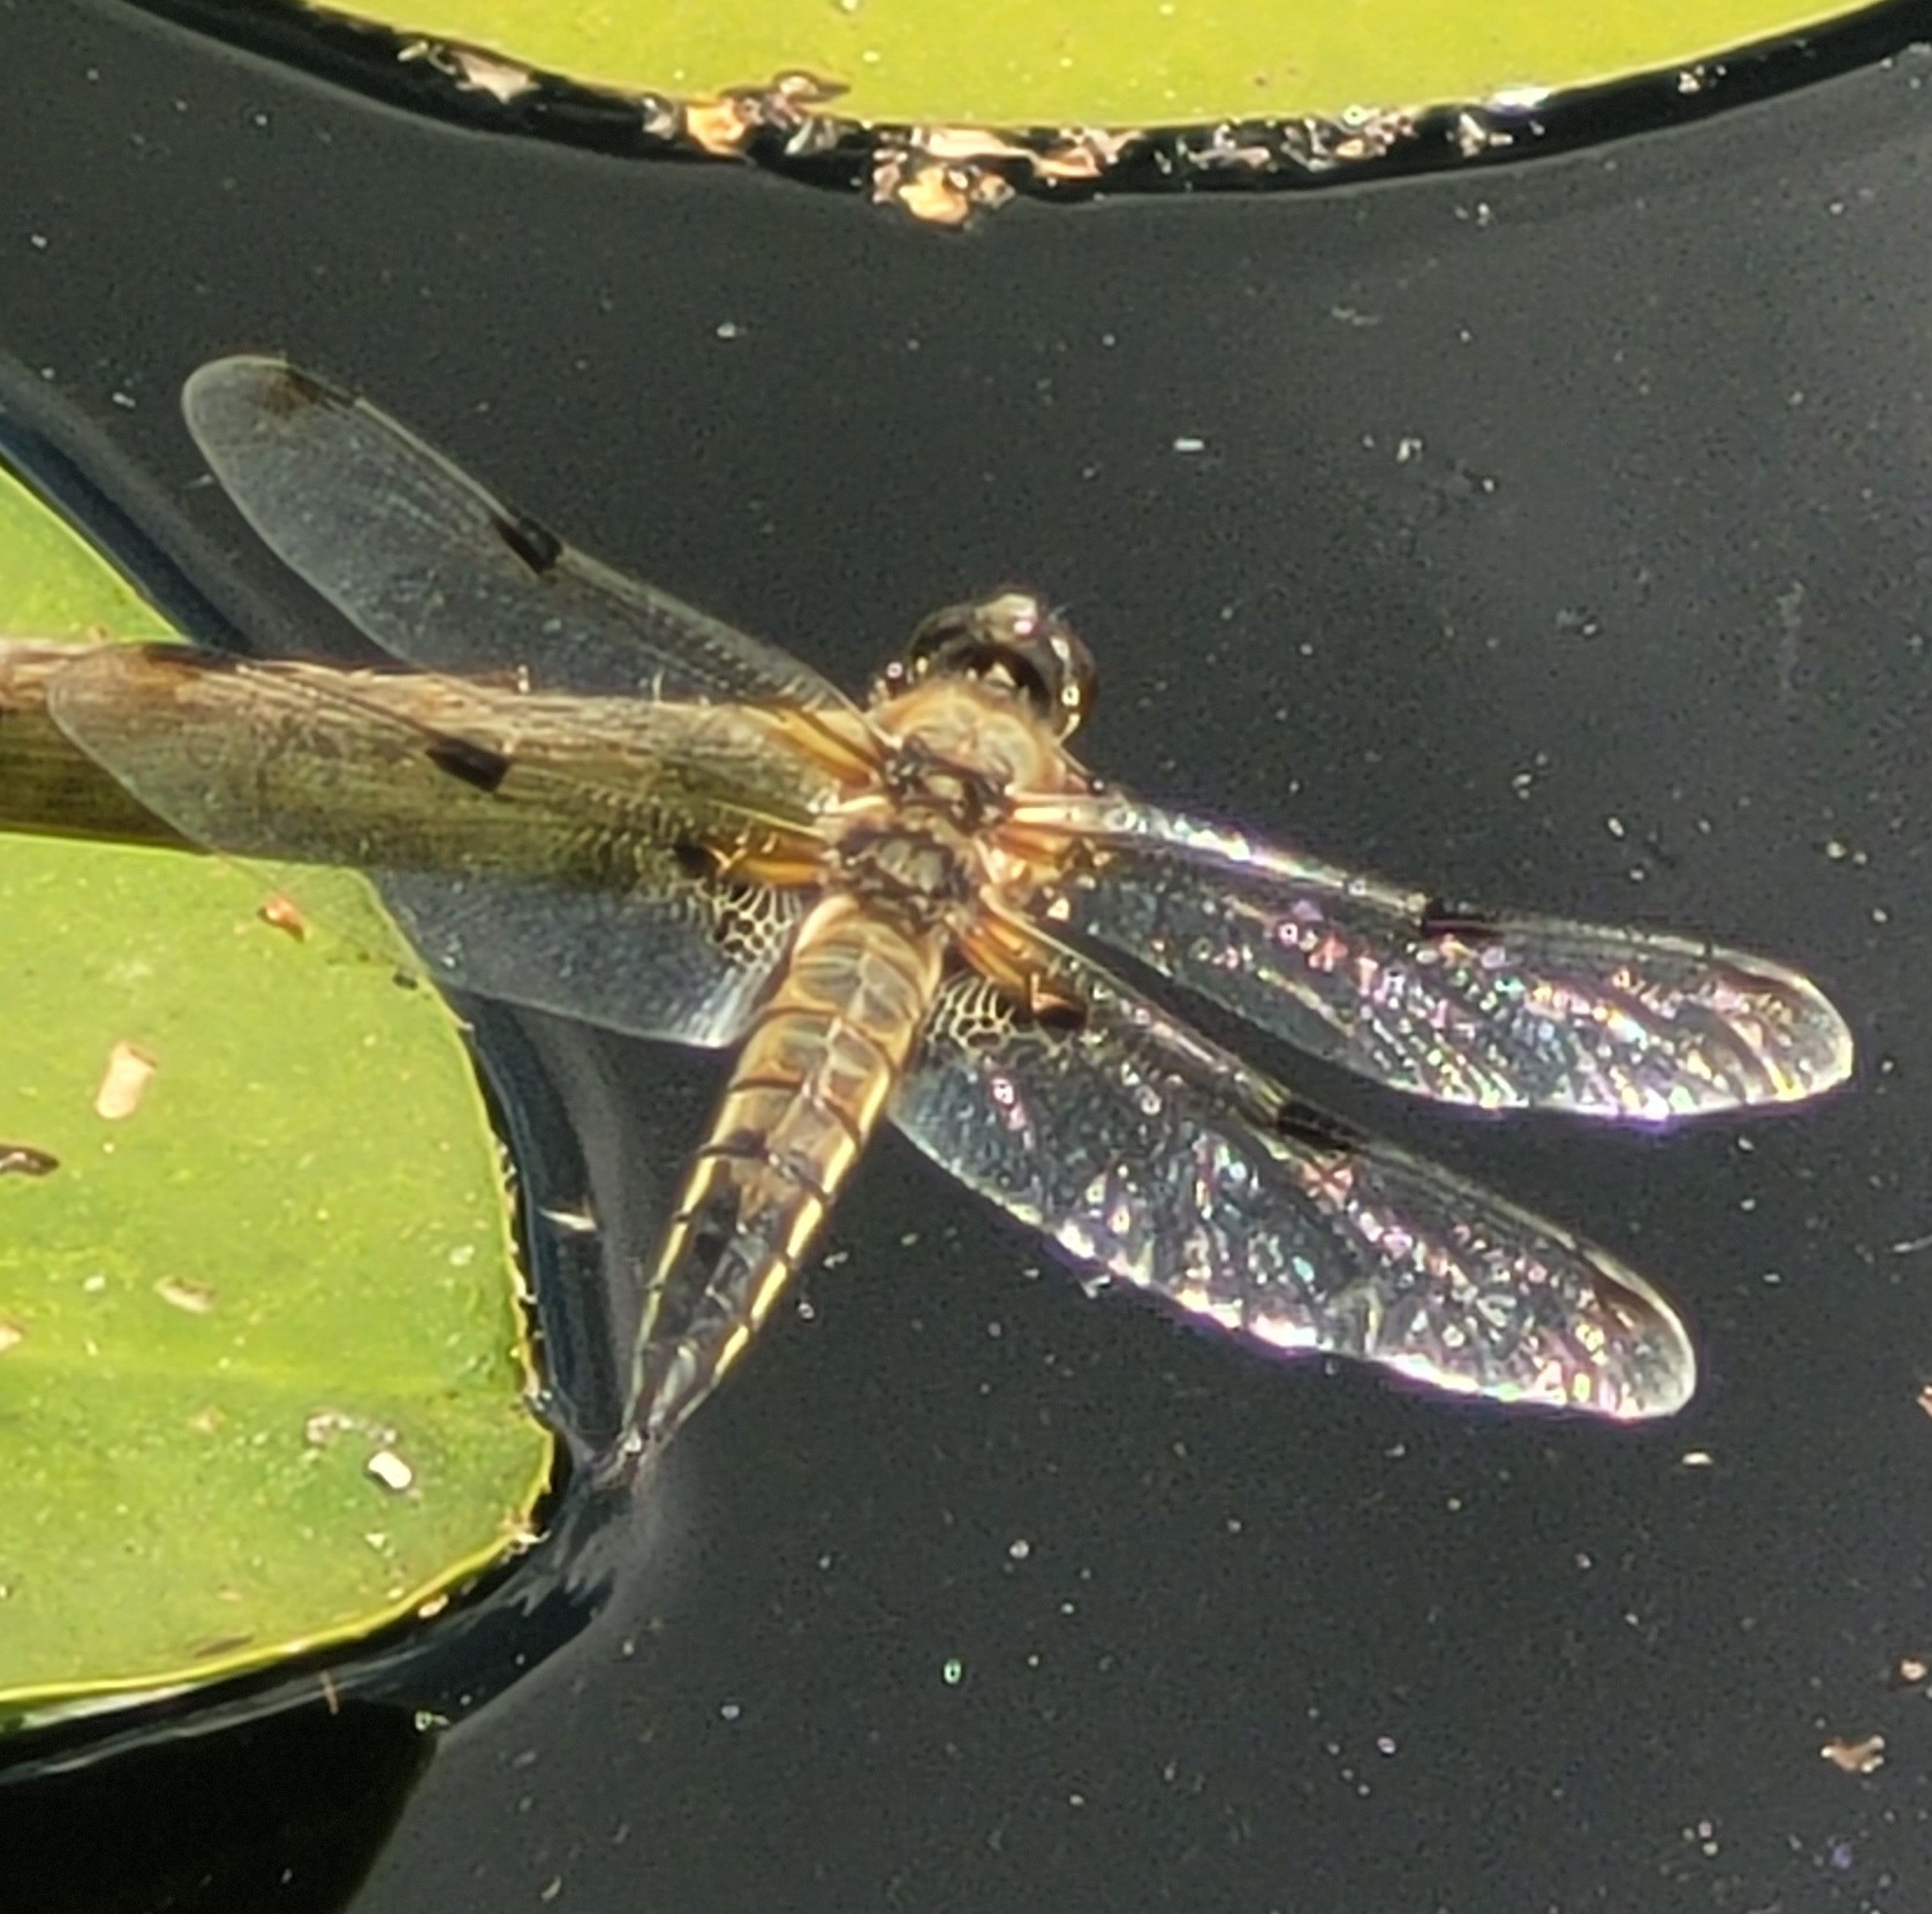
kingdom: Animalia
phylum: Arthropoda
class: Insecta
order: Odonata
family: Libellulidae
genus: Libellula
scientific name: Libellula quadrimaculata
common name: Fireplettet libel
